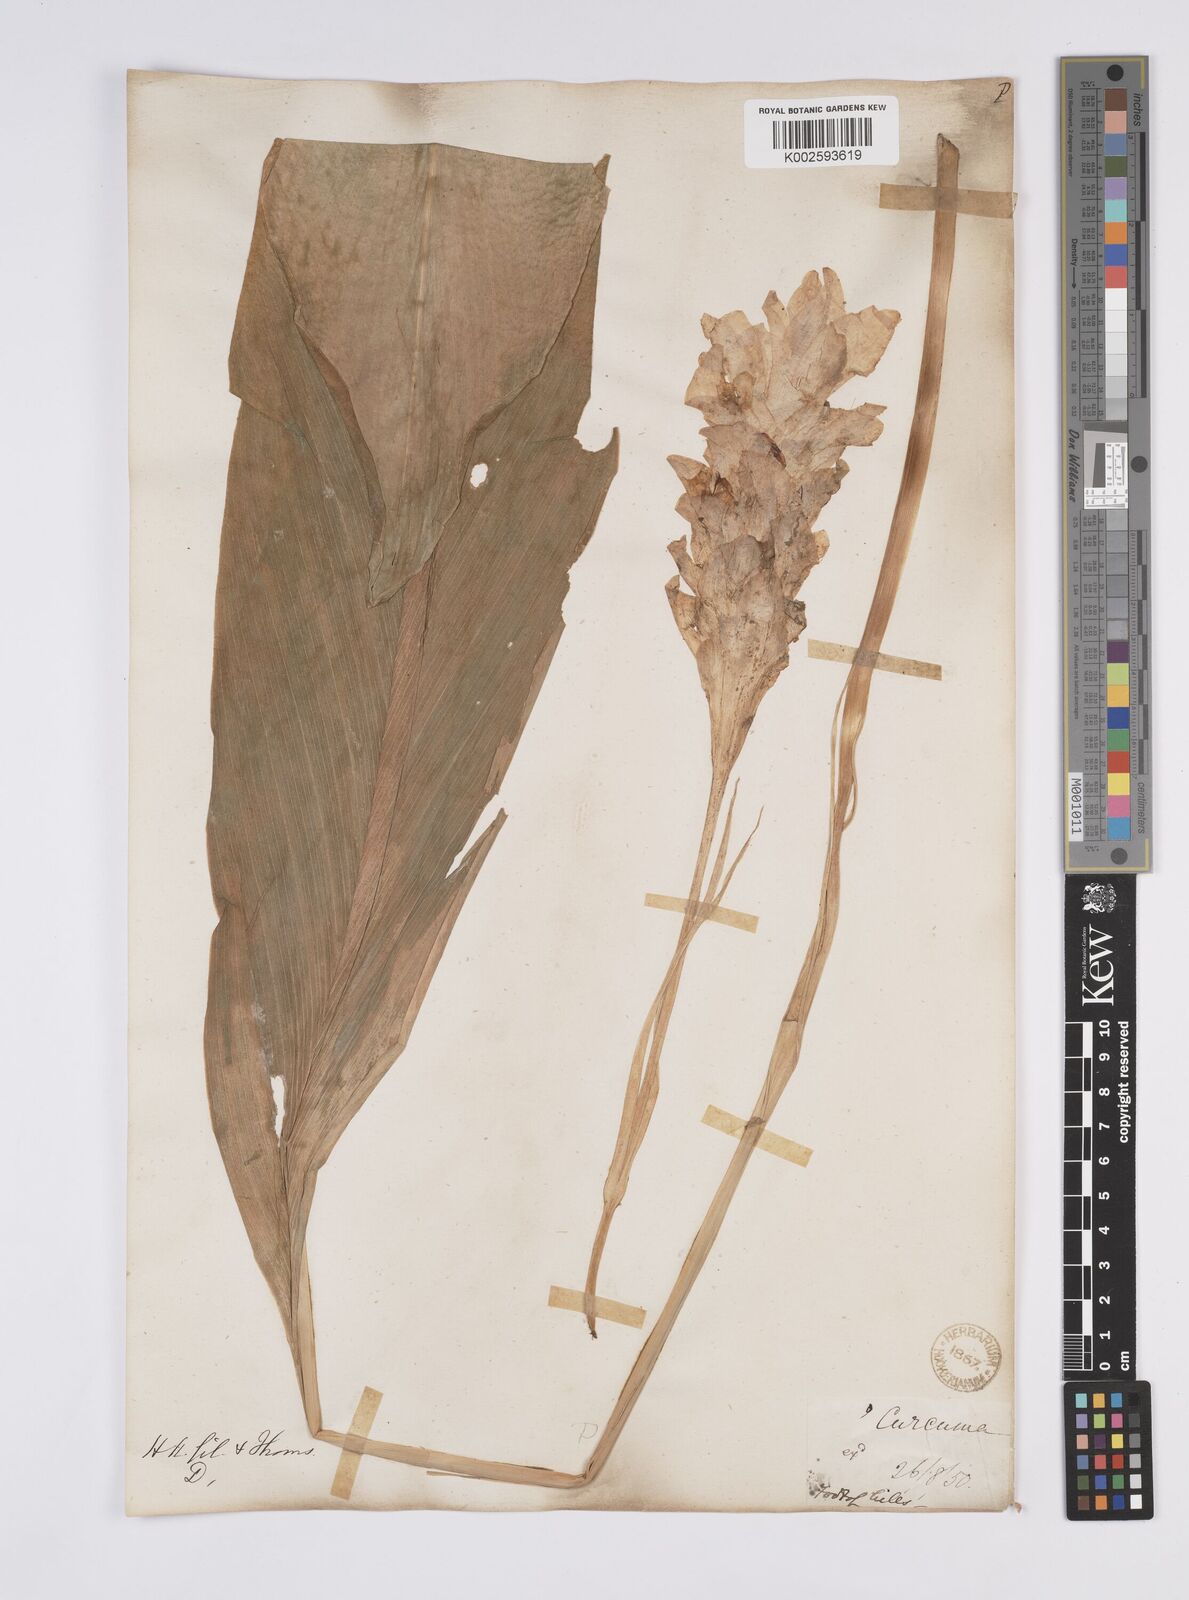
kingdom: Plantae
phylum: Tracheophyta
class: Liliopsida
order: Zingiberales
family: Zingiberaceae
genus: Curcuma
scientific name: Curcuma
